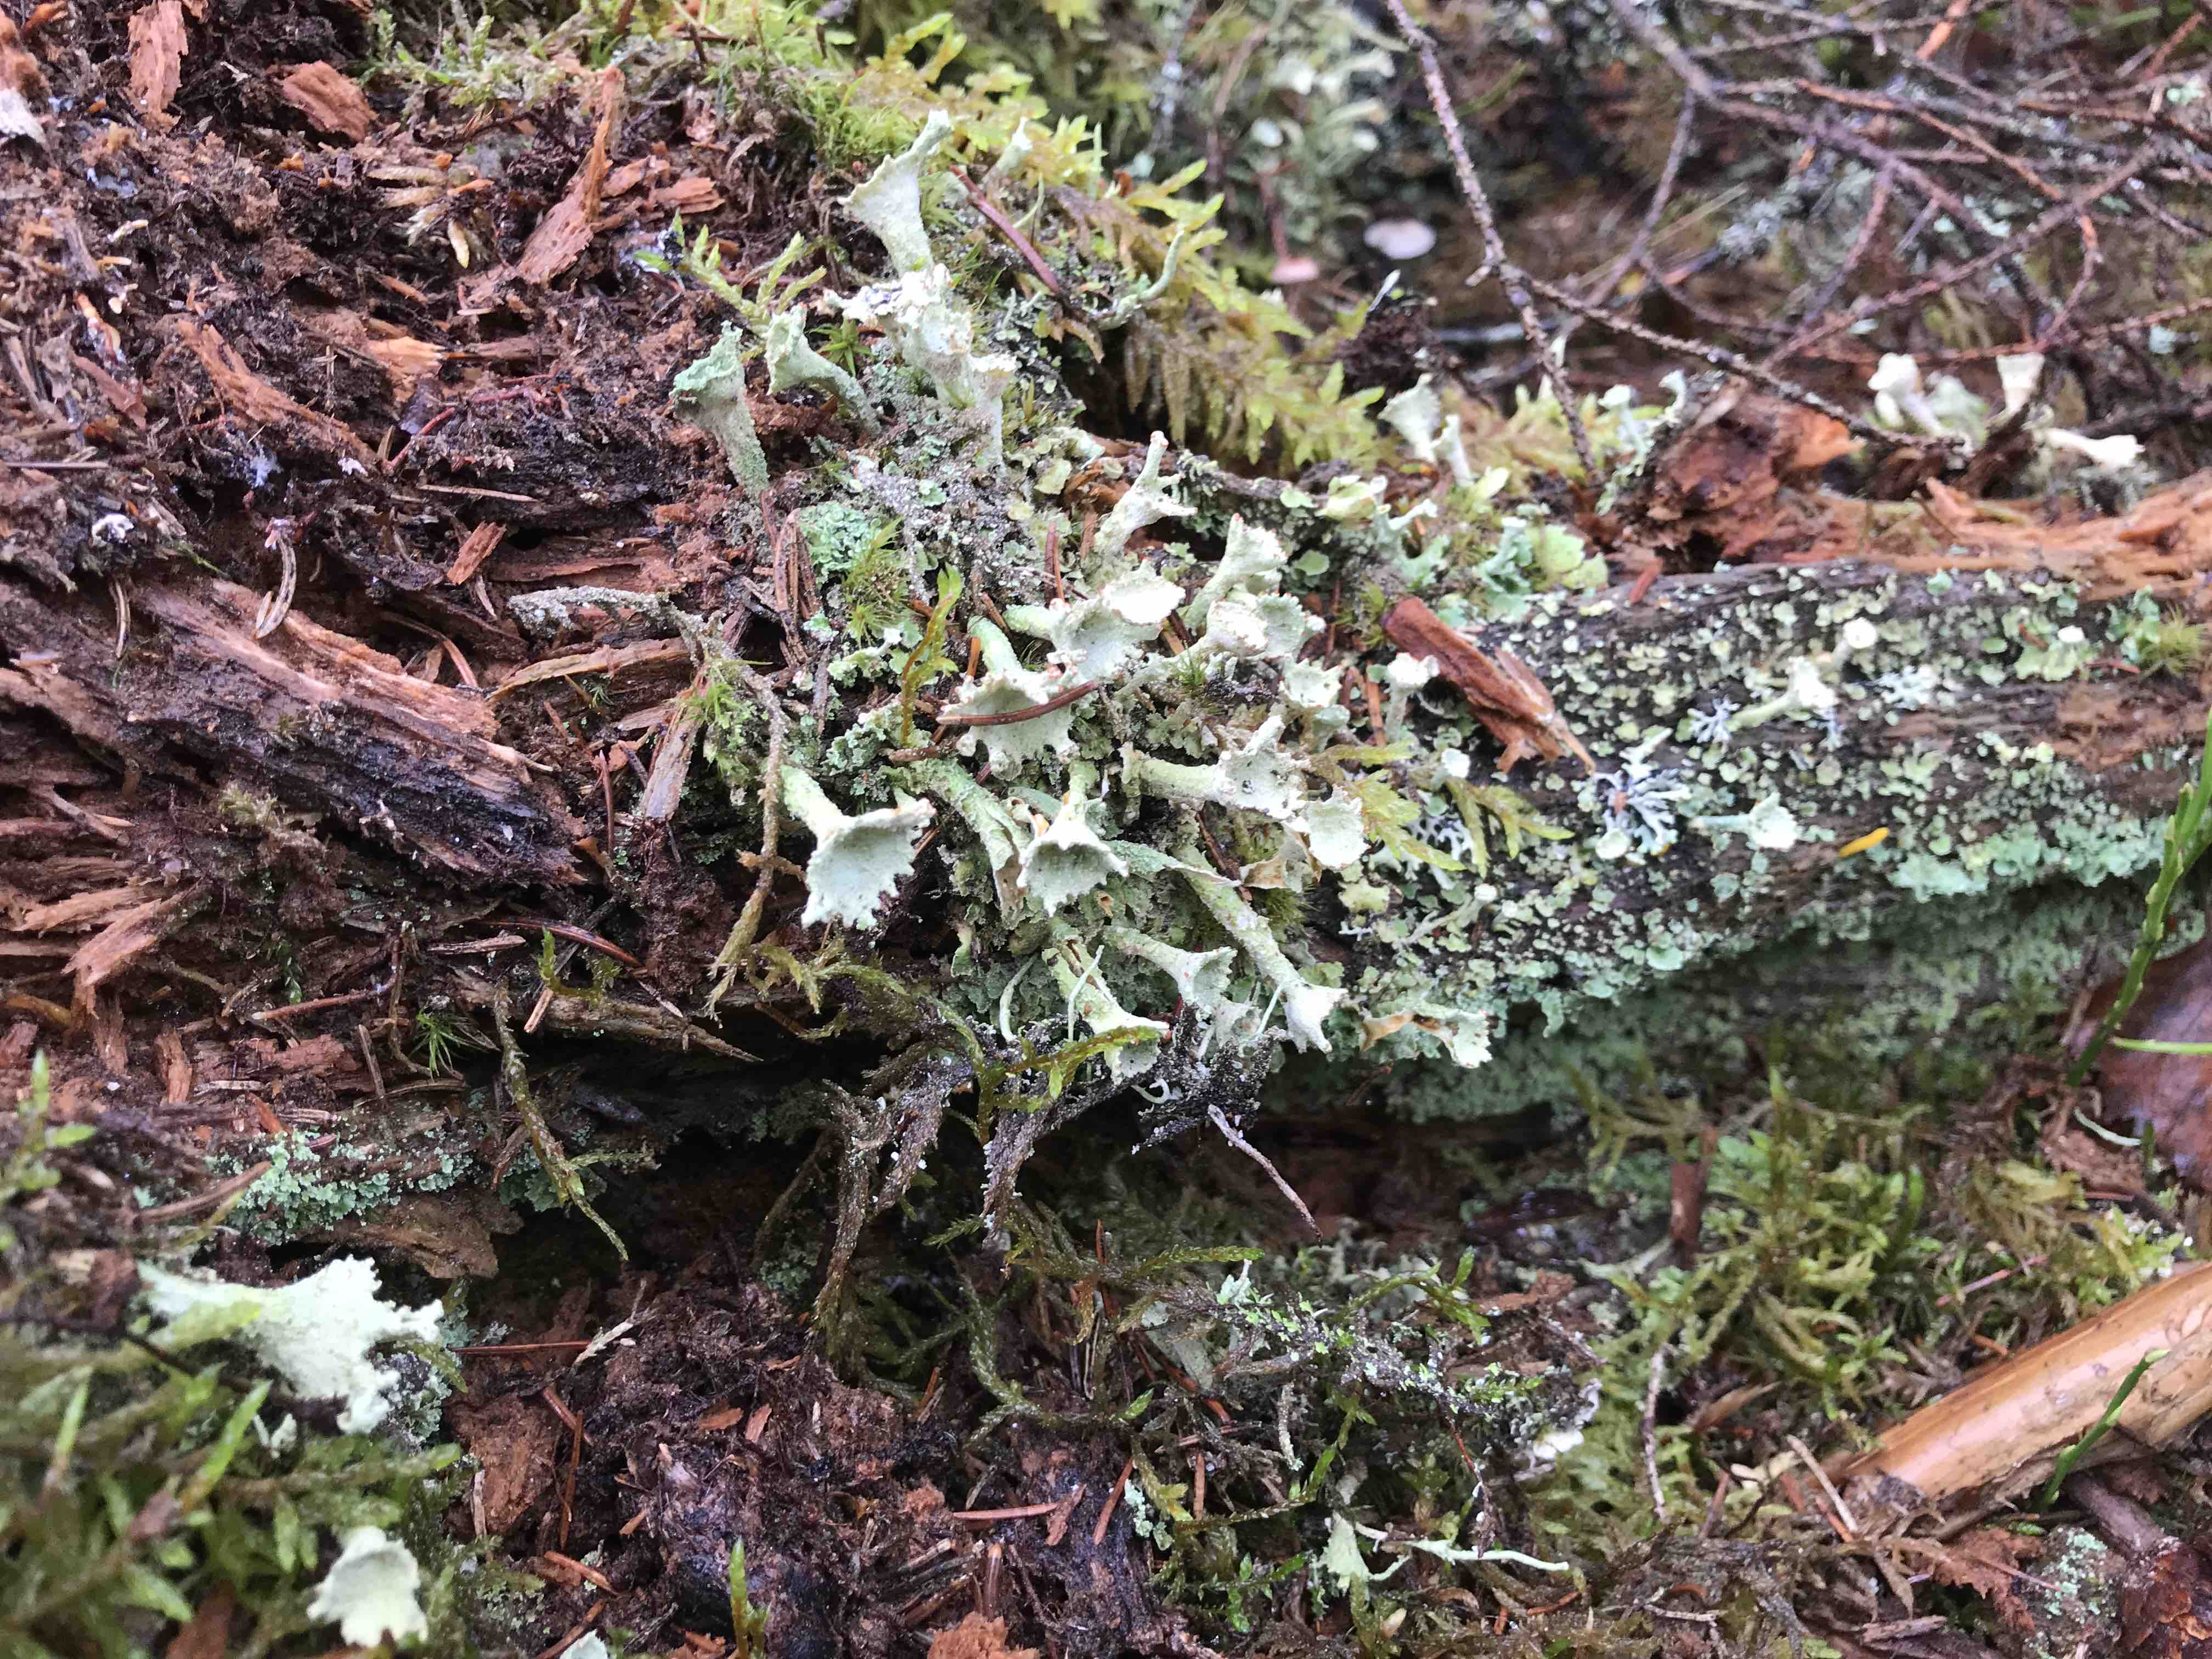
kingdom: Fungi
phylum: Ascomycota
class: Lecanoromycetes
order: Lecanorales
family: Cladoniaceae
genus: Cladonia
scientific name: Cladonia
